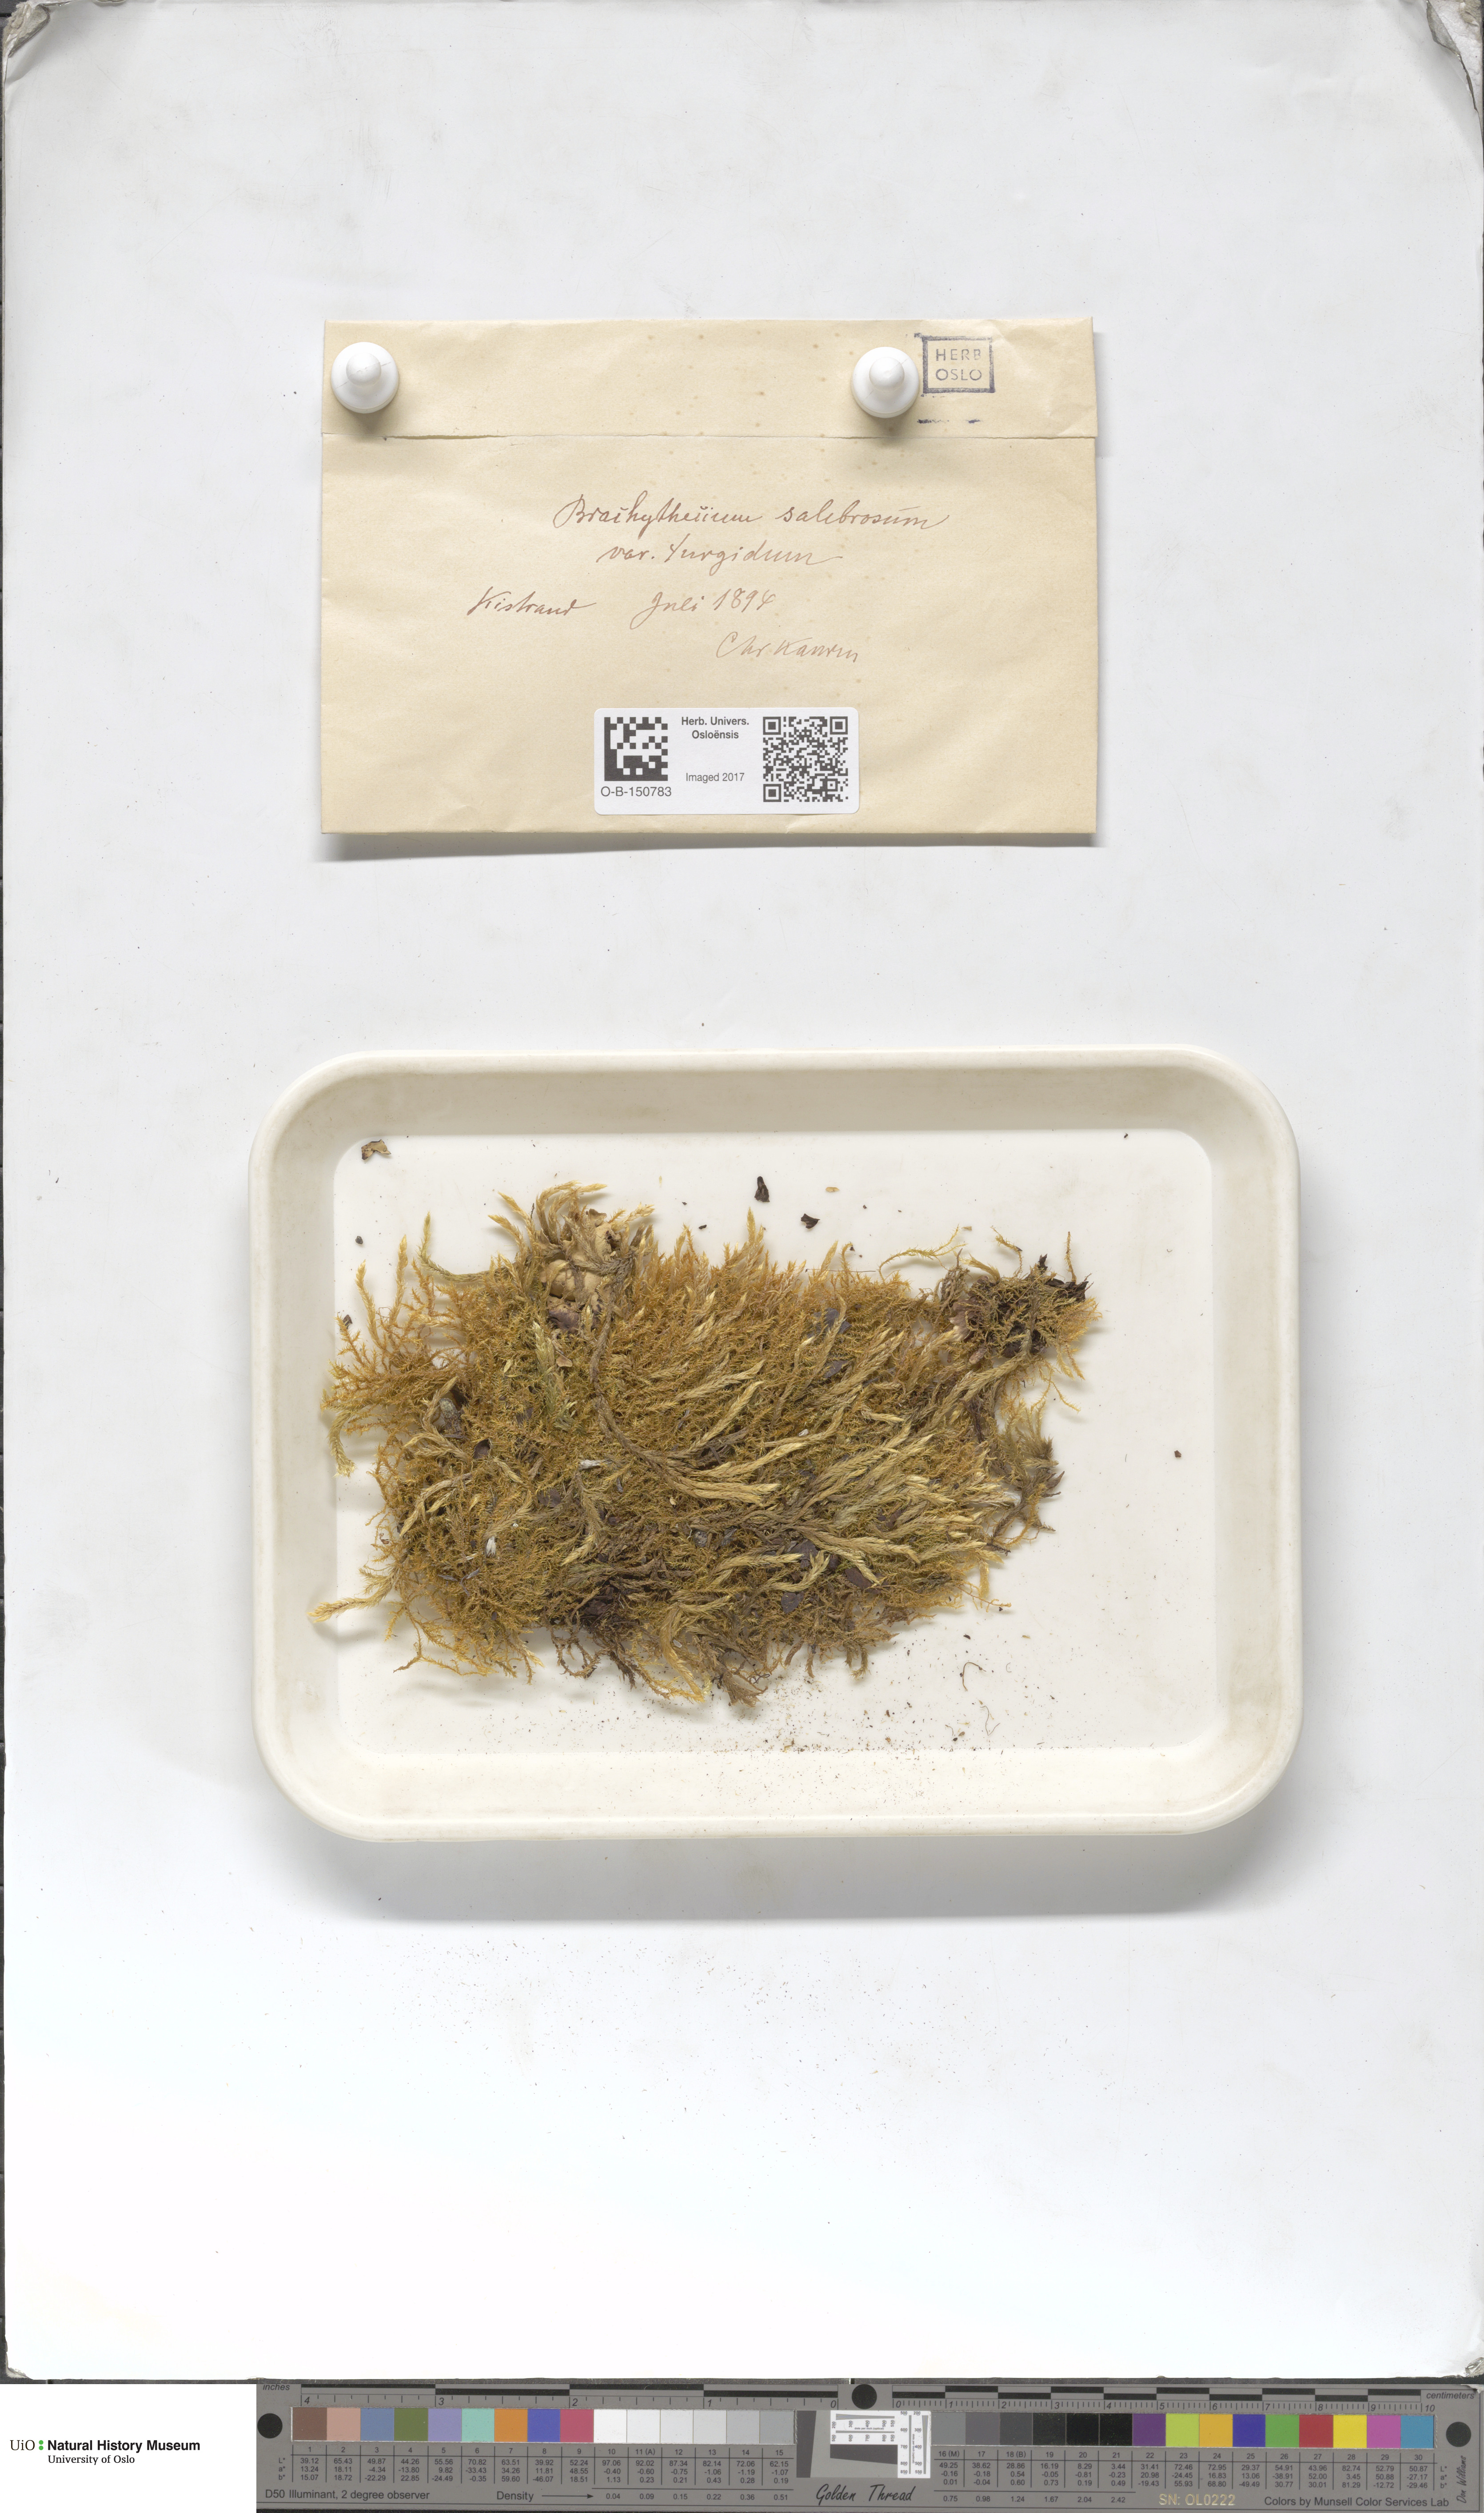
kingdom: Plantae
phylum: Bryophyta
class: Bryopsida
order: Hypnales
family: Brachytheciaceae
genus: Brachythecium
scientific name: Brachythecium turgidum
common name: Thick ragged moss
